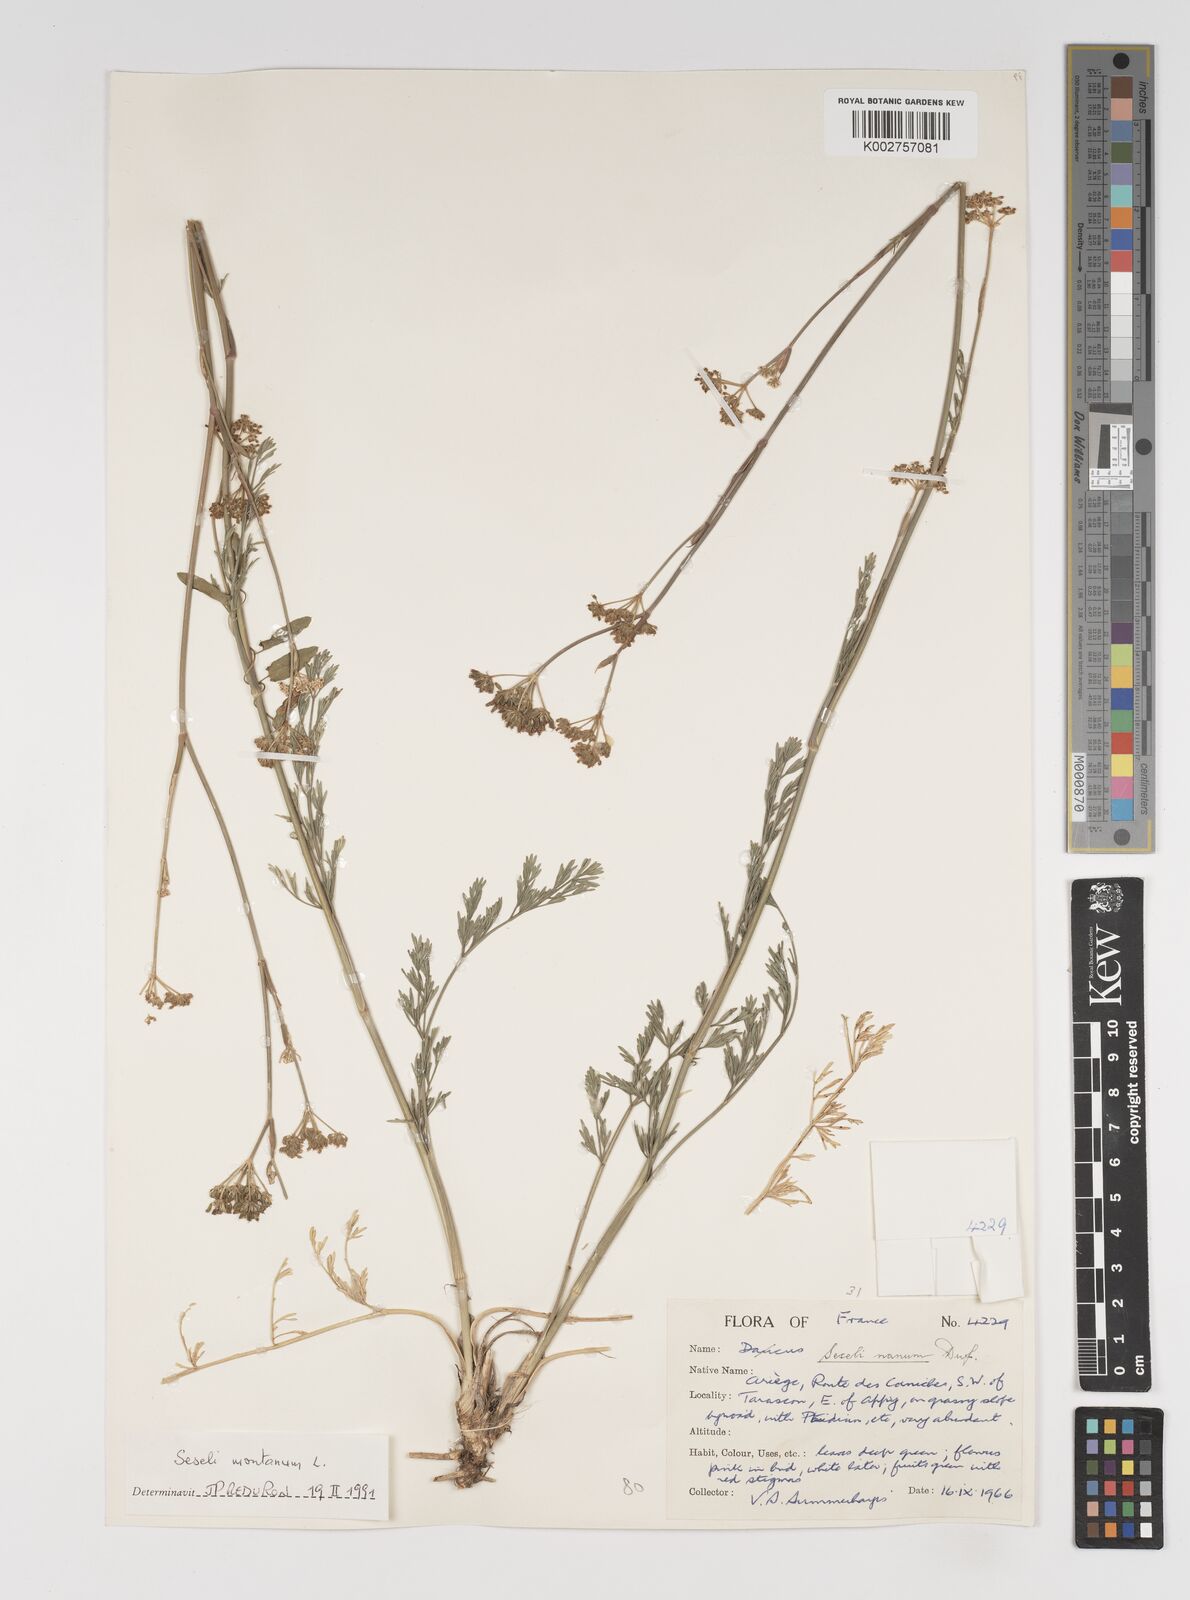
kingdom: Plantae
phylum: Tracheophyta
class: Magnoliopsida
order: Apiales
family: Apiaceae
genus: Seseli
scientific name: Seseli montanum
